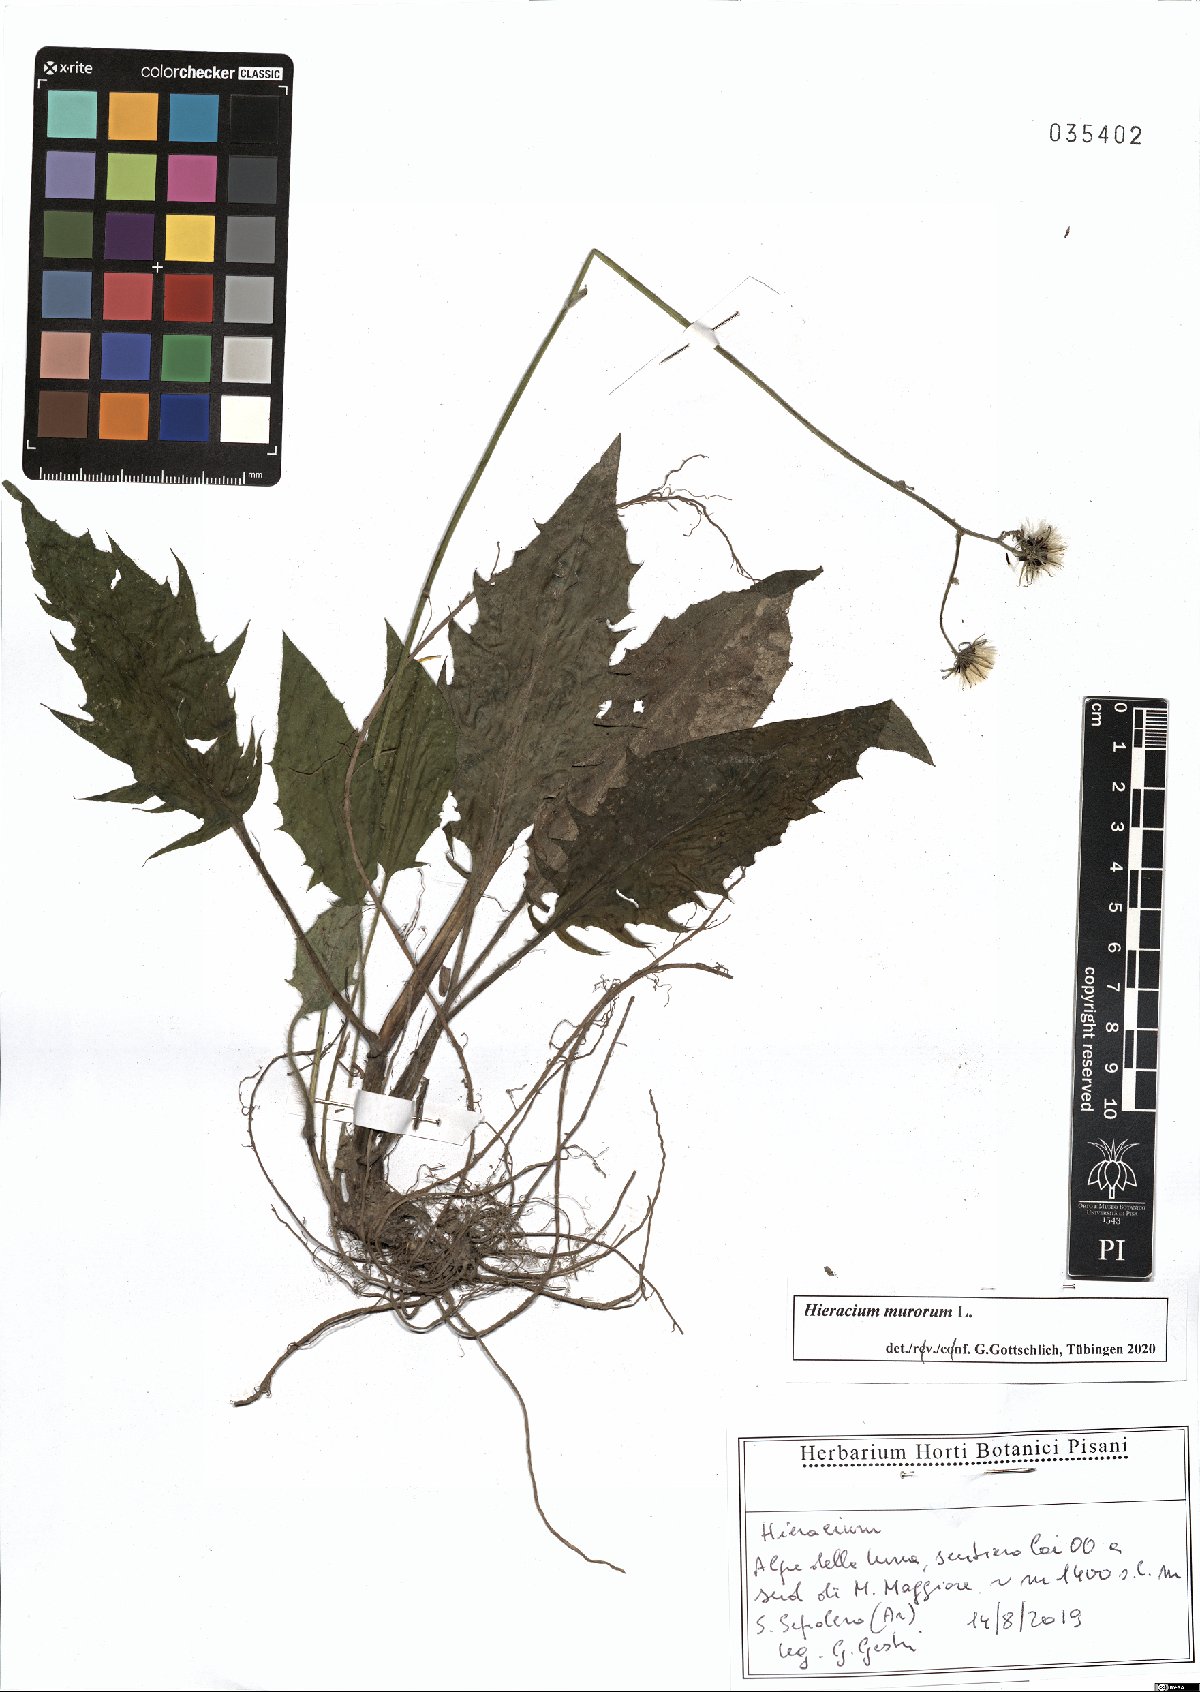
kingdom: Plantae
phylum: Tracheophyta
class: Magnoliopsida
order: Asterales
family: Asteraceae
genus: Hieracium
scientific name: Hieracium murorum
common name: Wall hawkweed
